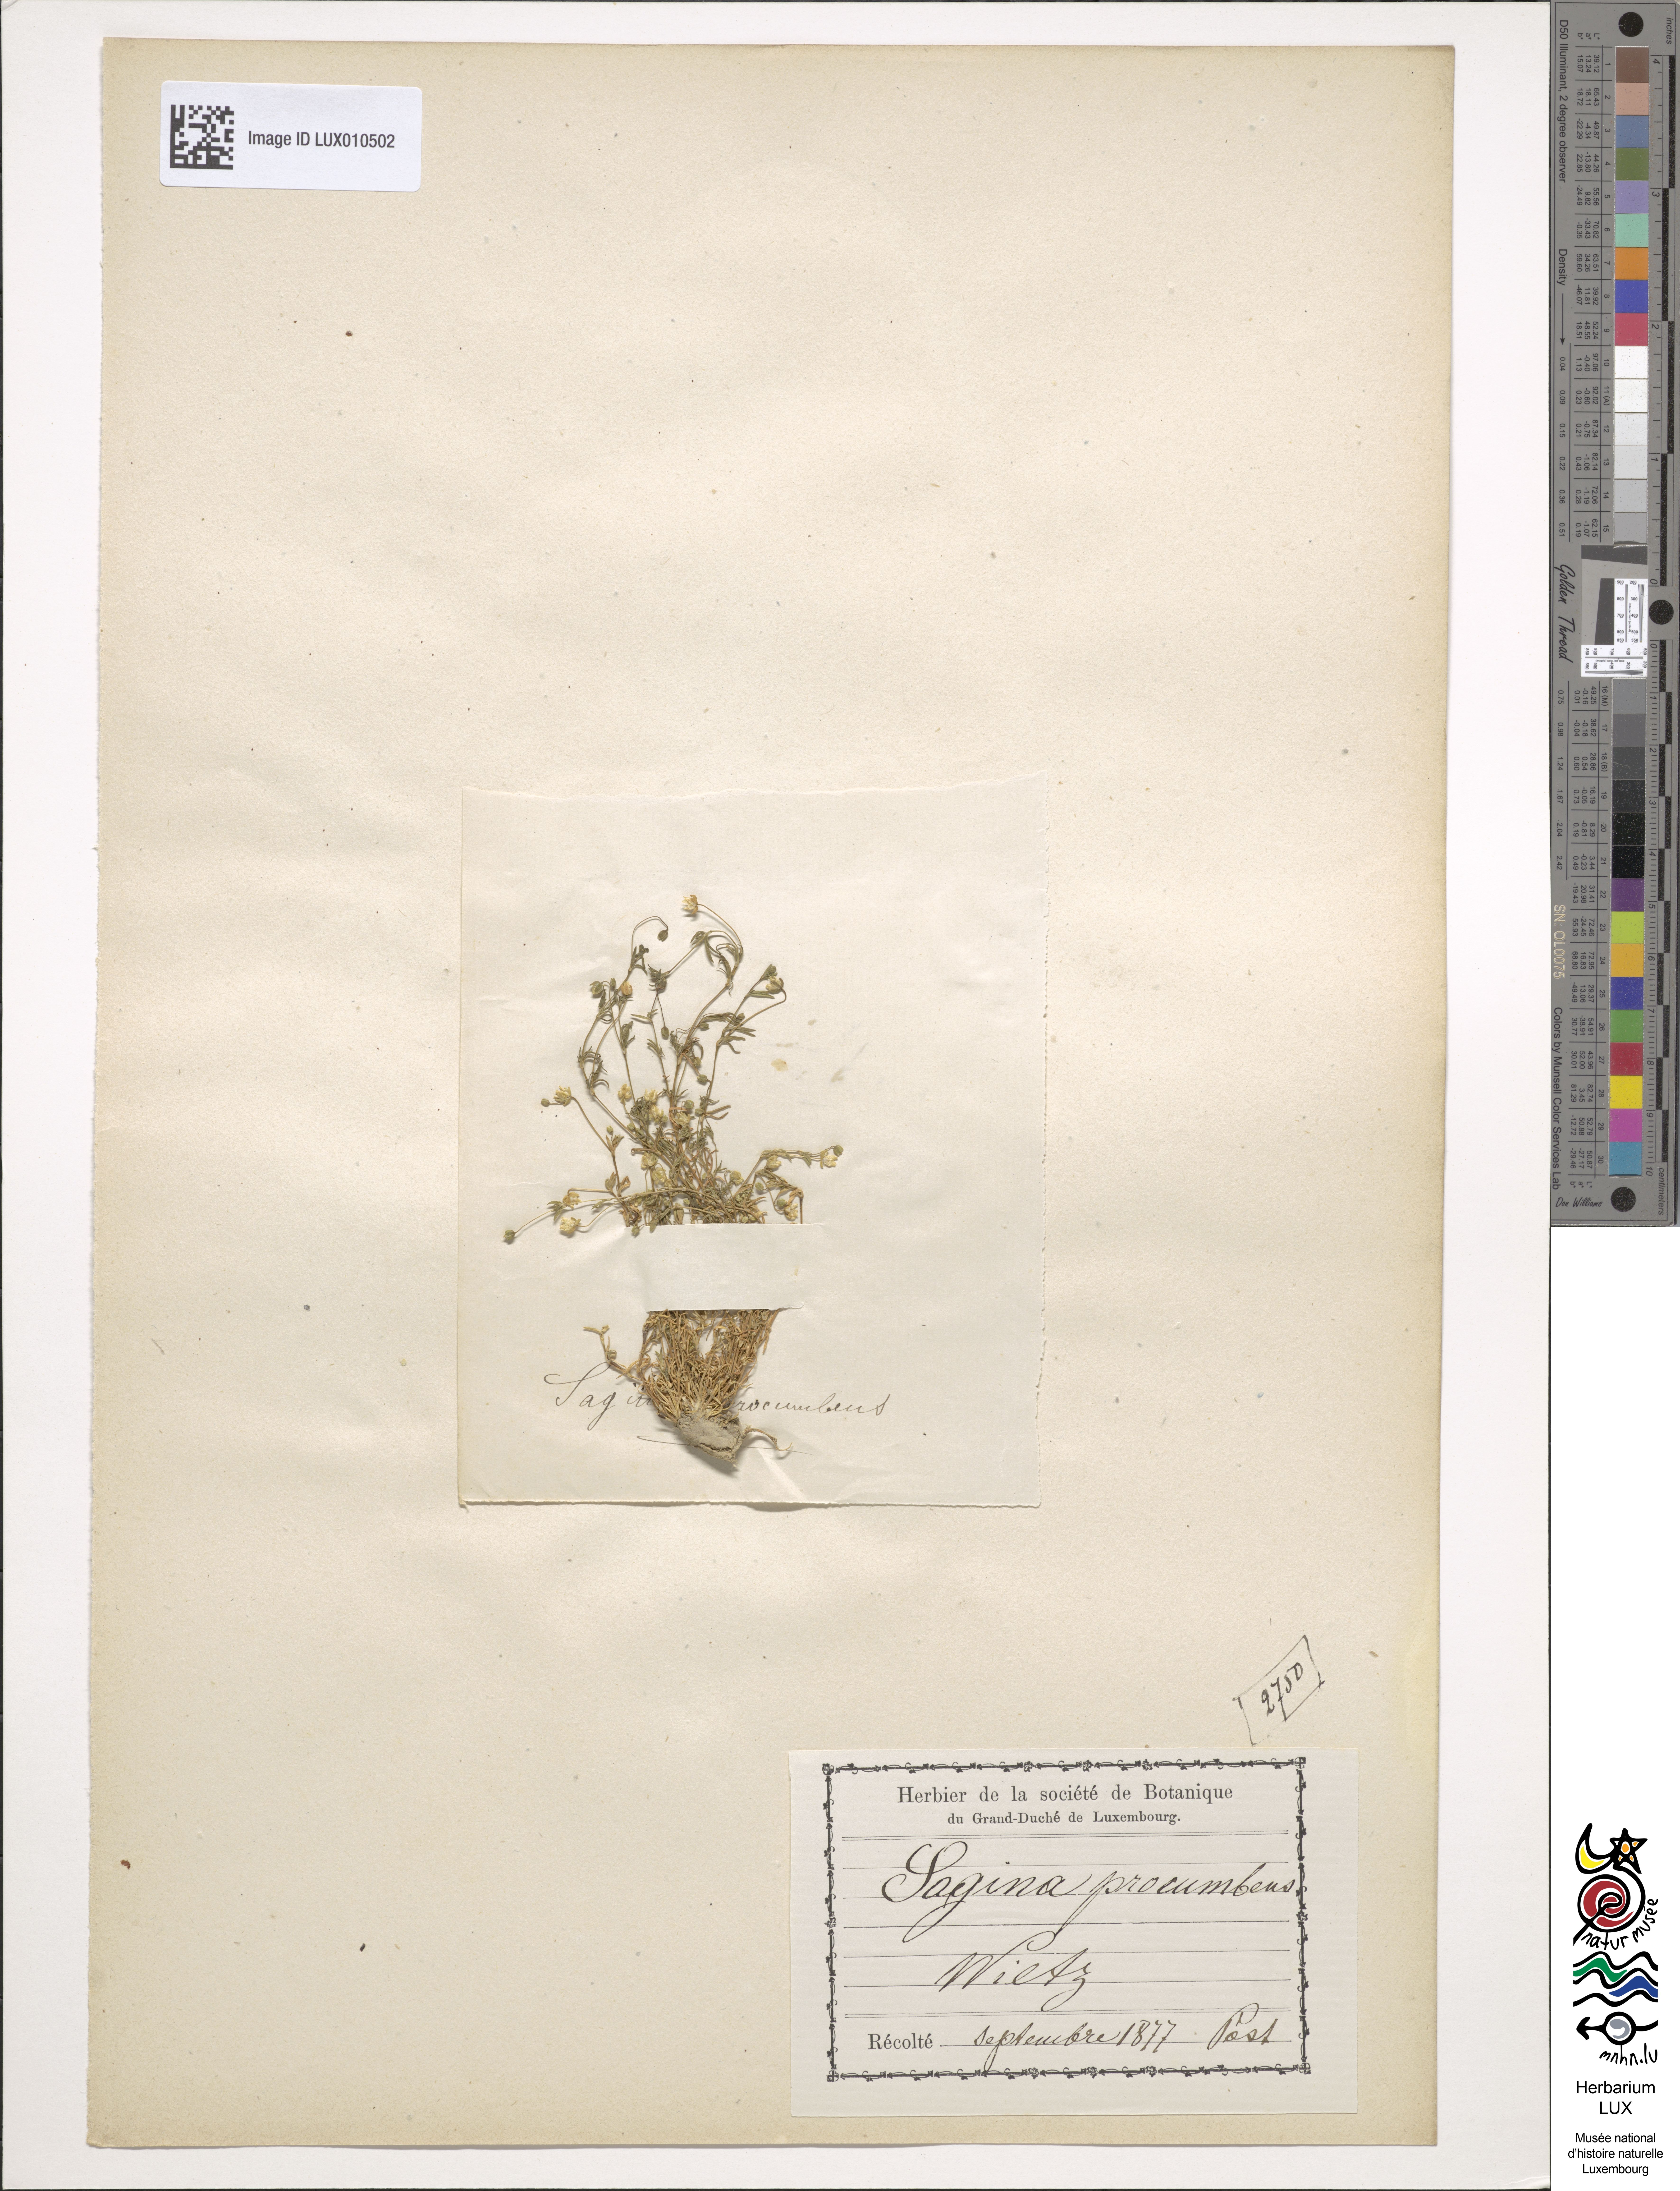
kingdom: Plantae
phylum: Tracheophyta
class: Magnoliopsida
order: Caryophyllales
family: Caryophyllaceae
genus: Sagina
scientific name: Sagina procumbens
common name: Procumbent pearlwort
